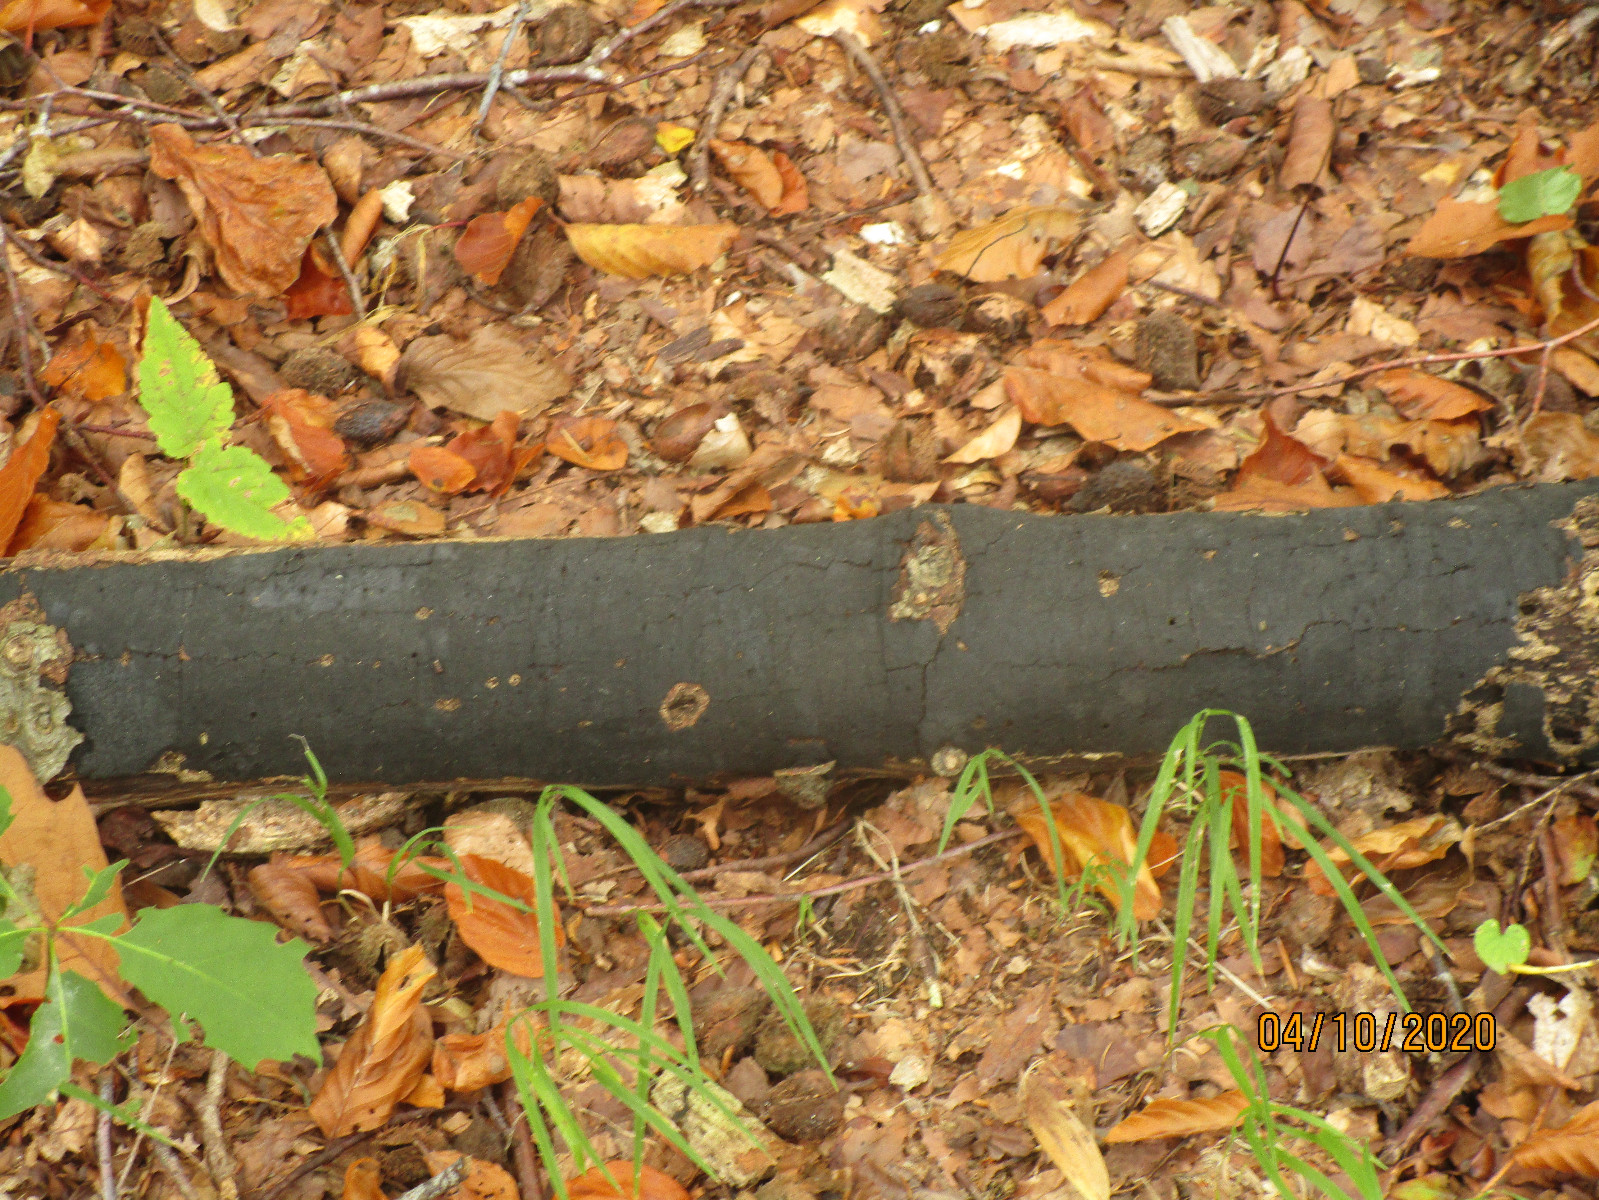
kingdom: Fungi
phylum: Ascomycota
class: Sordariomycetes
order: Xylariales
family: Diatrypaceae
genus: Diatrype
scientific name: Diatrype decorticata
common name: barksprænger-kulskorpe
